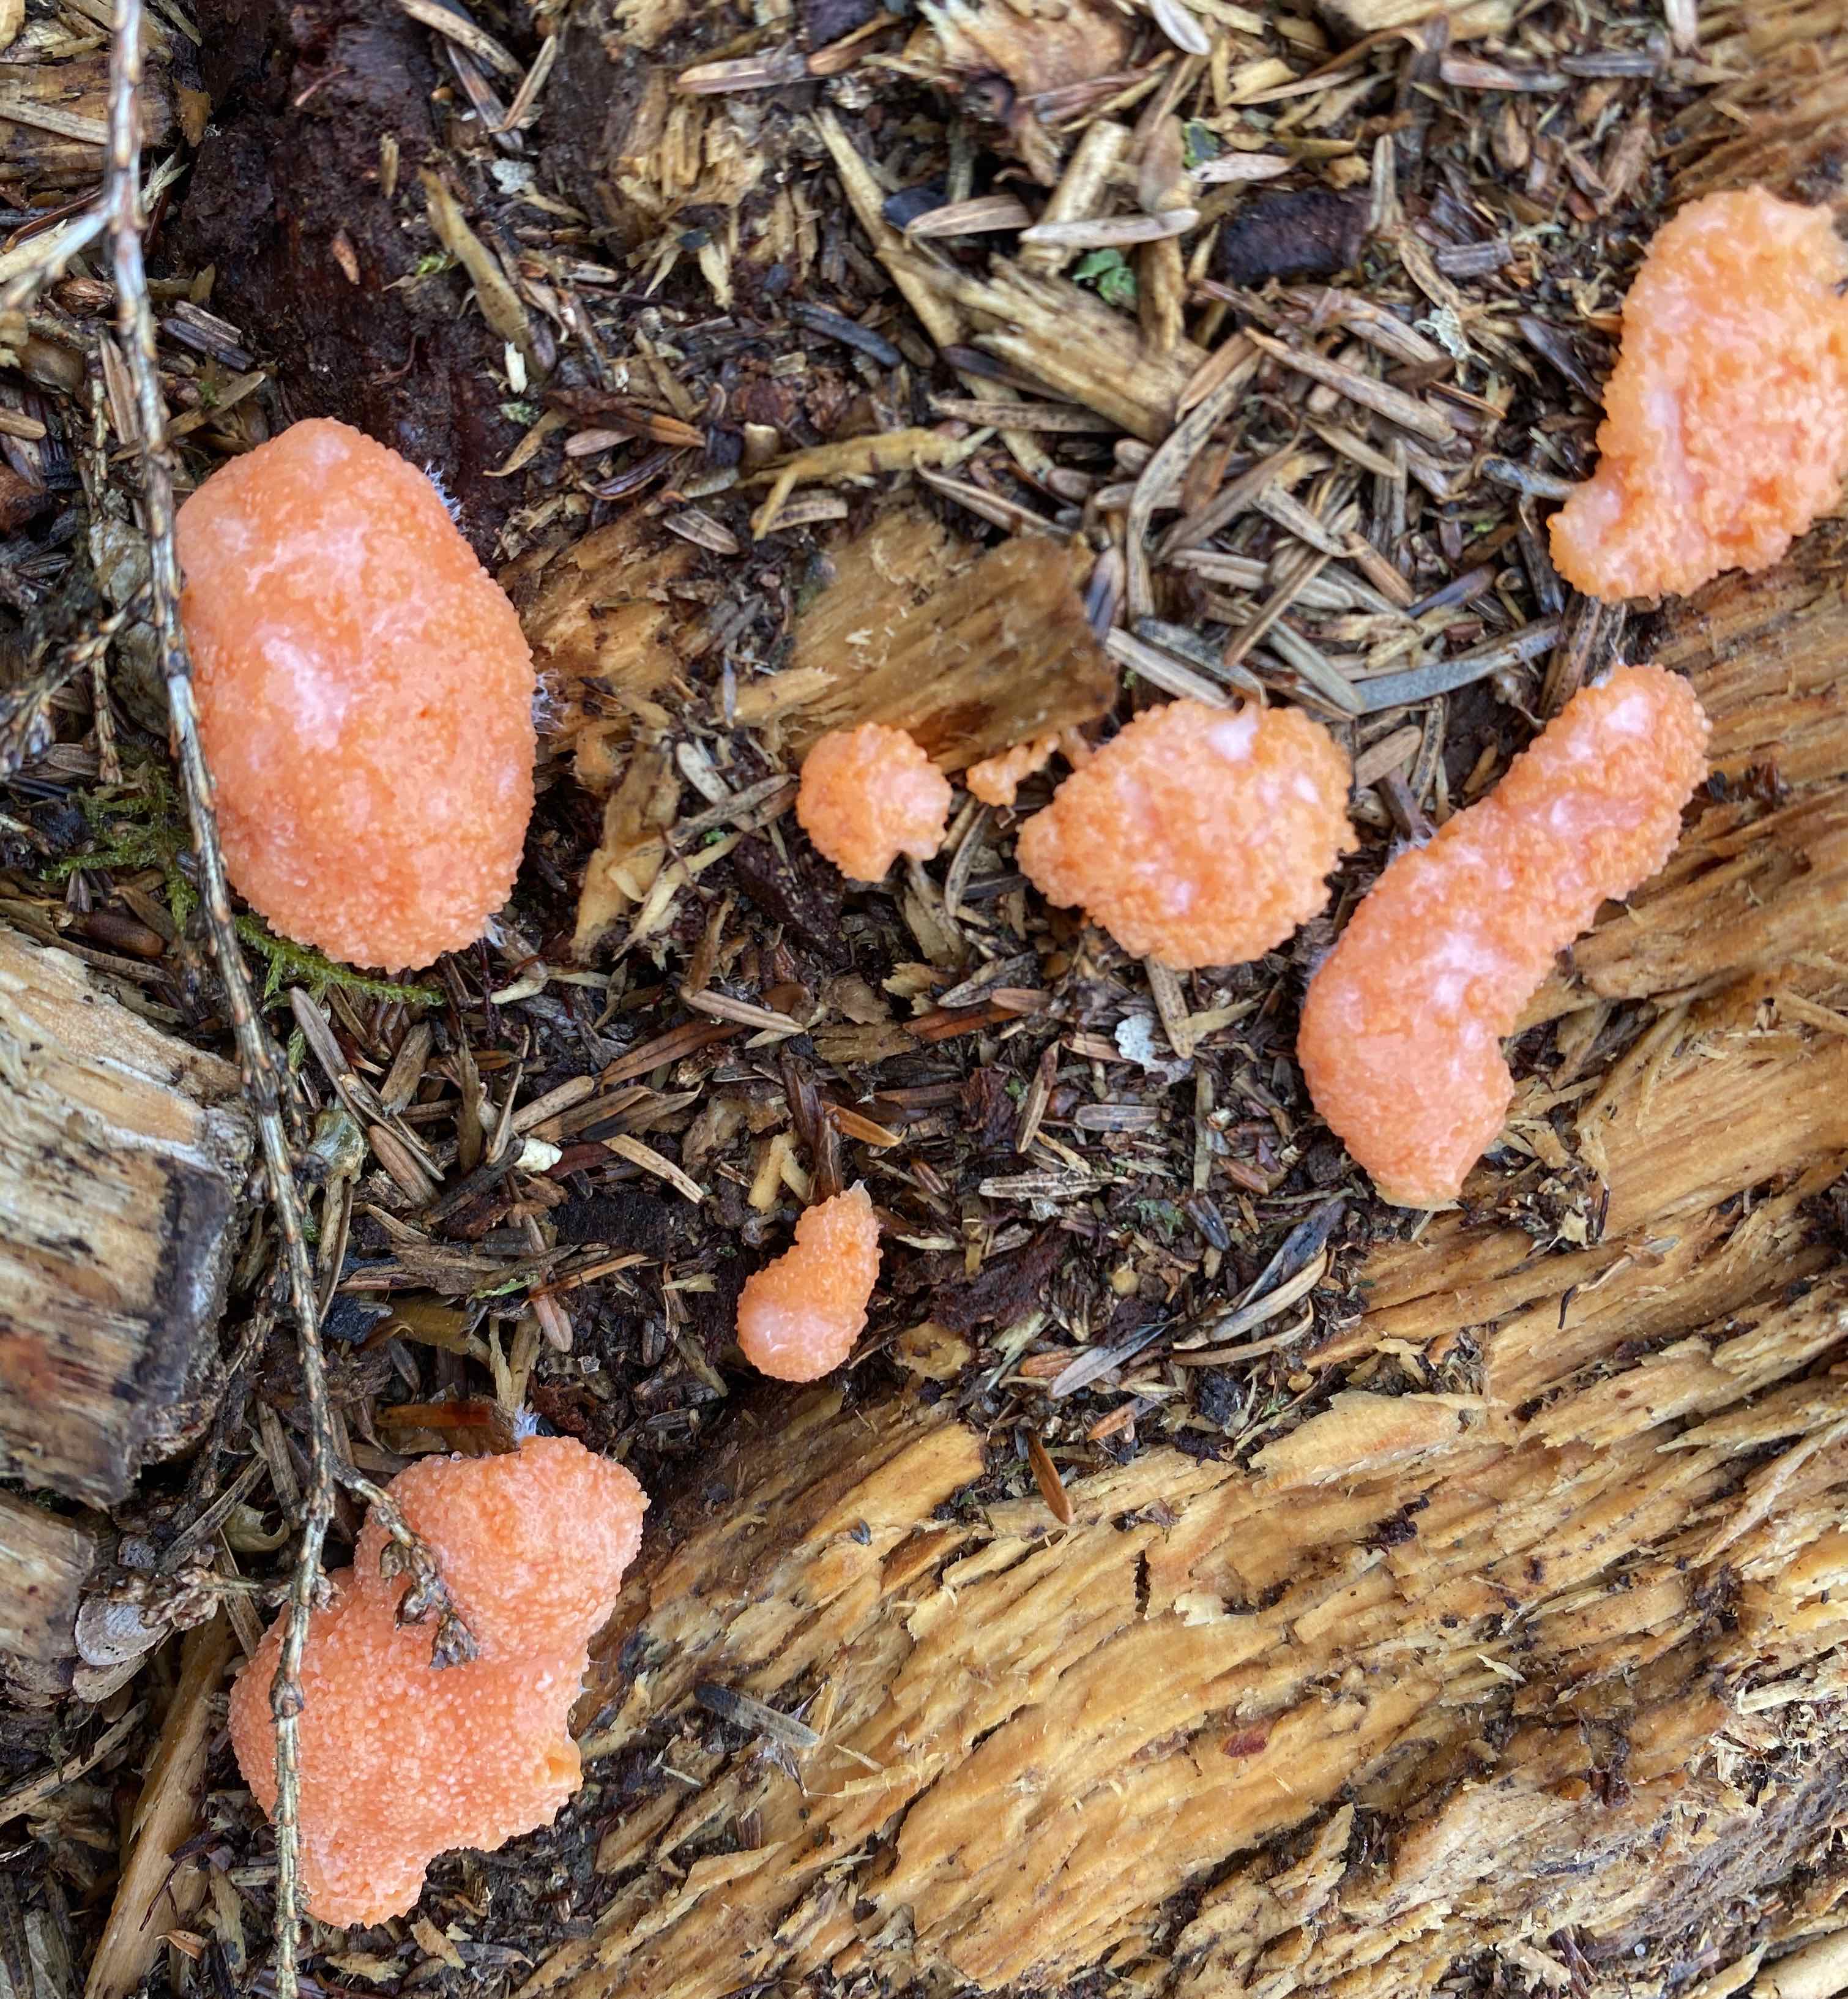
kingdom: Protozoa
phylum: Mycetozoa
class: Myxomycetes
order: Cribrariales
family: Tubiferaceae
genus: Tubifera
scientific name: Tubifera ferruginosa
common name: kanel-støvrør
